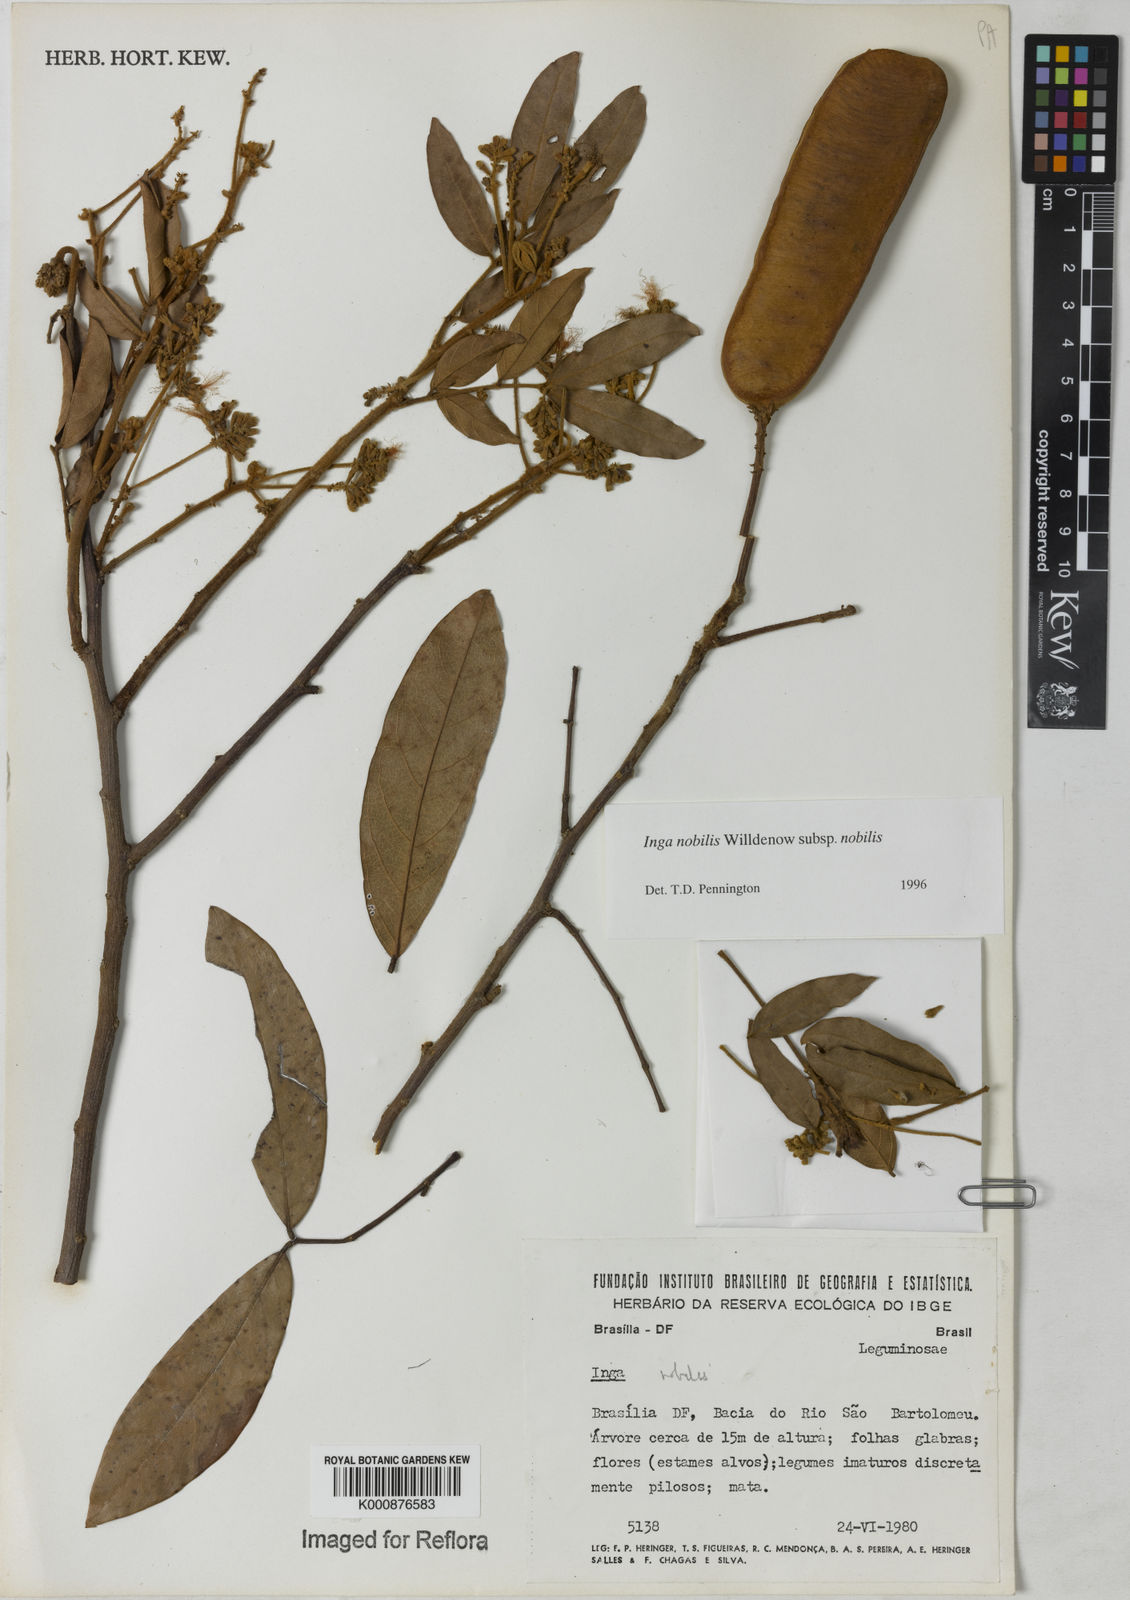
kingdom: Plantae
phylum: Tracheophyta
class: Magnoliopsida
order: Fabales
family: Fabaceae
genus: Inga
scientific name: Inga nobilis
